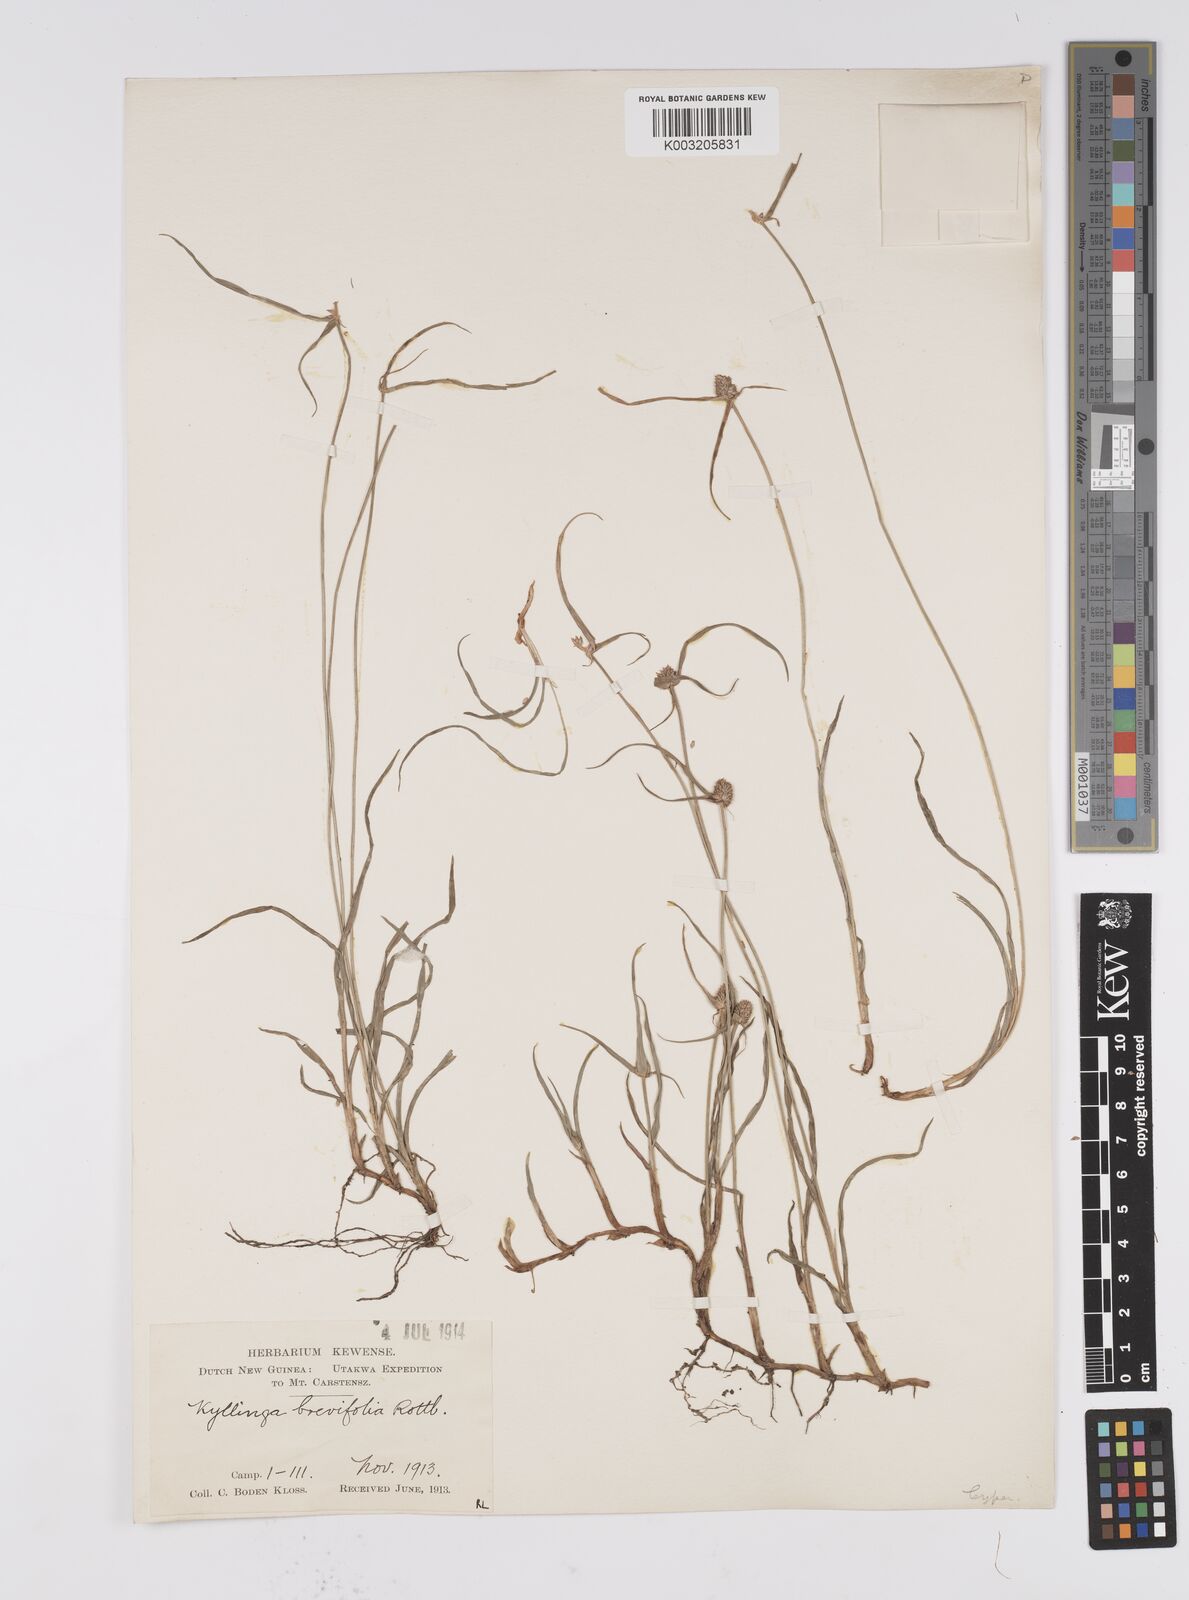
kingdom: Plantae
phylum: Tracheophyta
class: Liliopsida
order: Poales
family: Cyperaceae
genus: Cyperus
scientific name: Cyperus brevifolius
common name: Globe kyllinga
